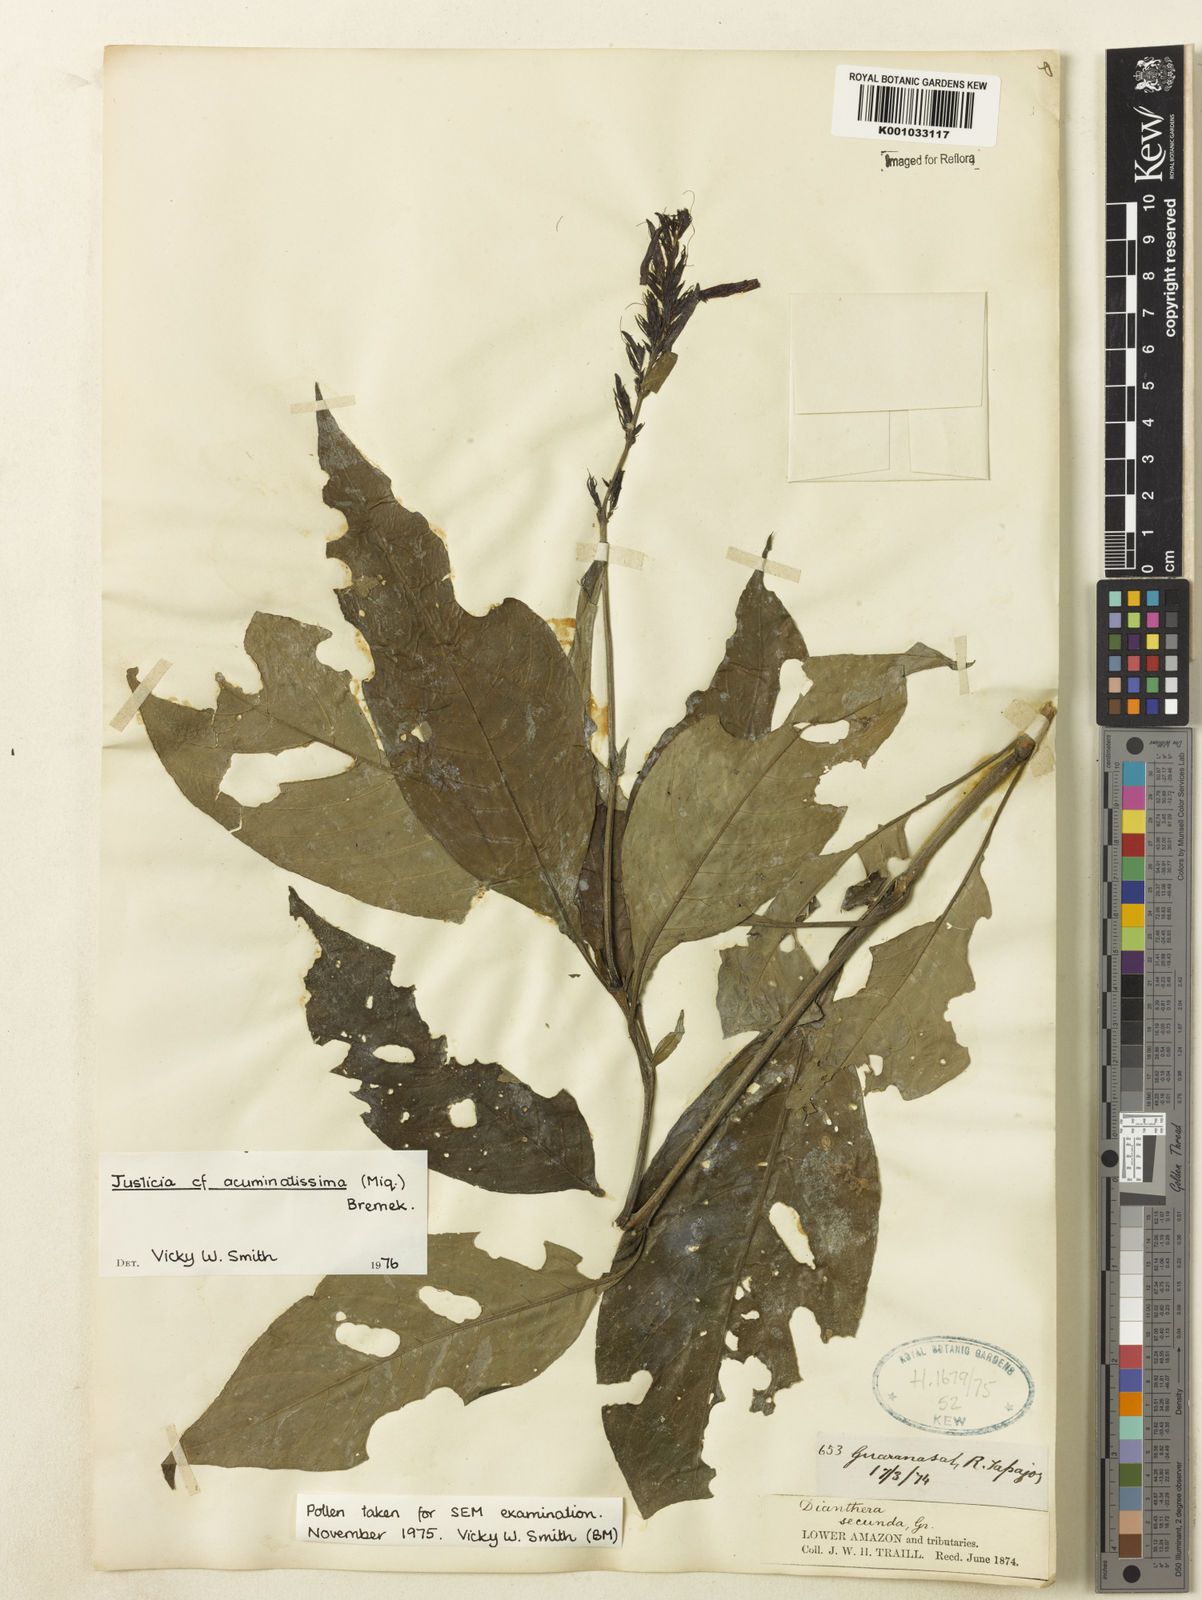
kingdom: Plantae
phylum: Tracheophyta
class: Magnoliopsida
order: Lamiales
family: Acanthaceae
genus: Dianthera
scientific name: Dianthera calycina
